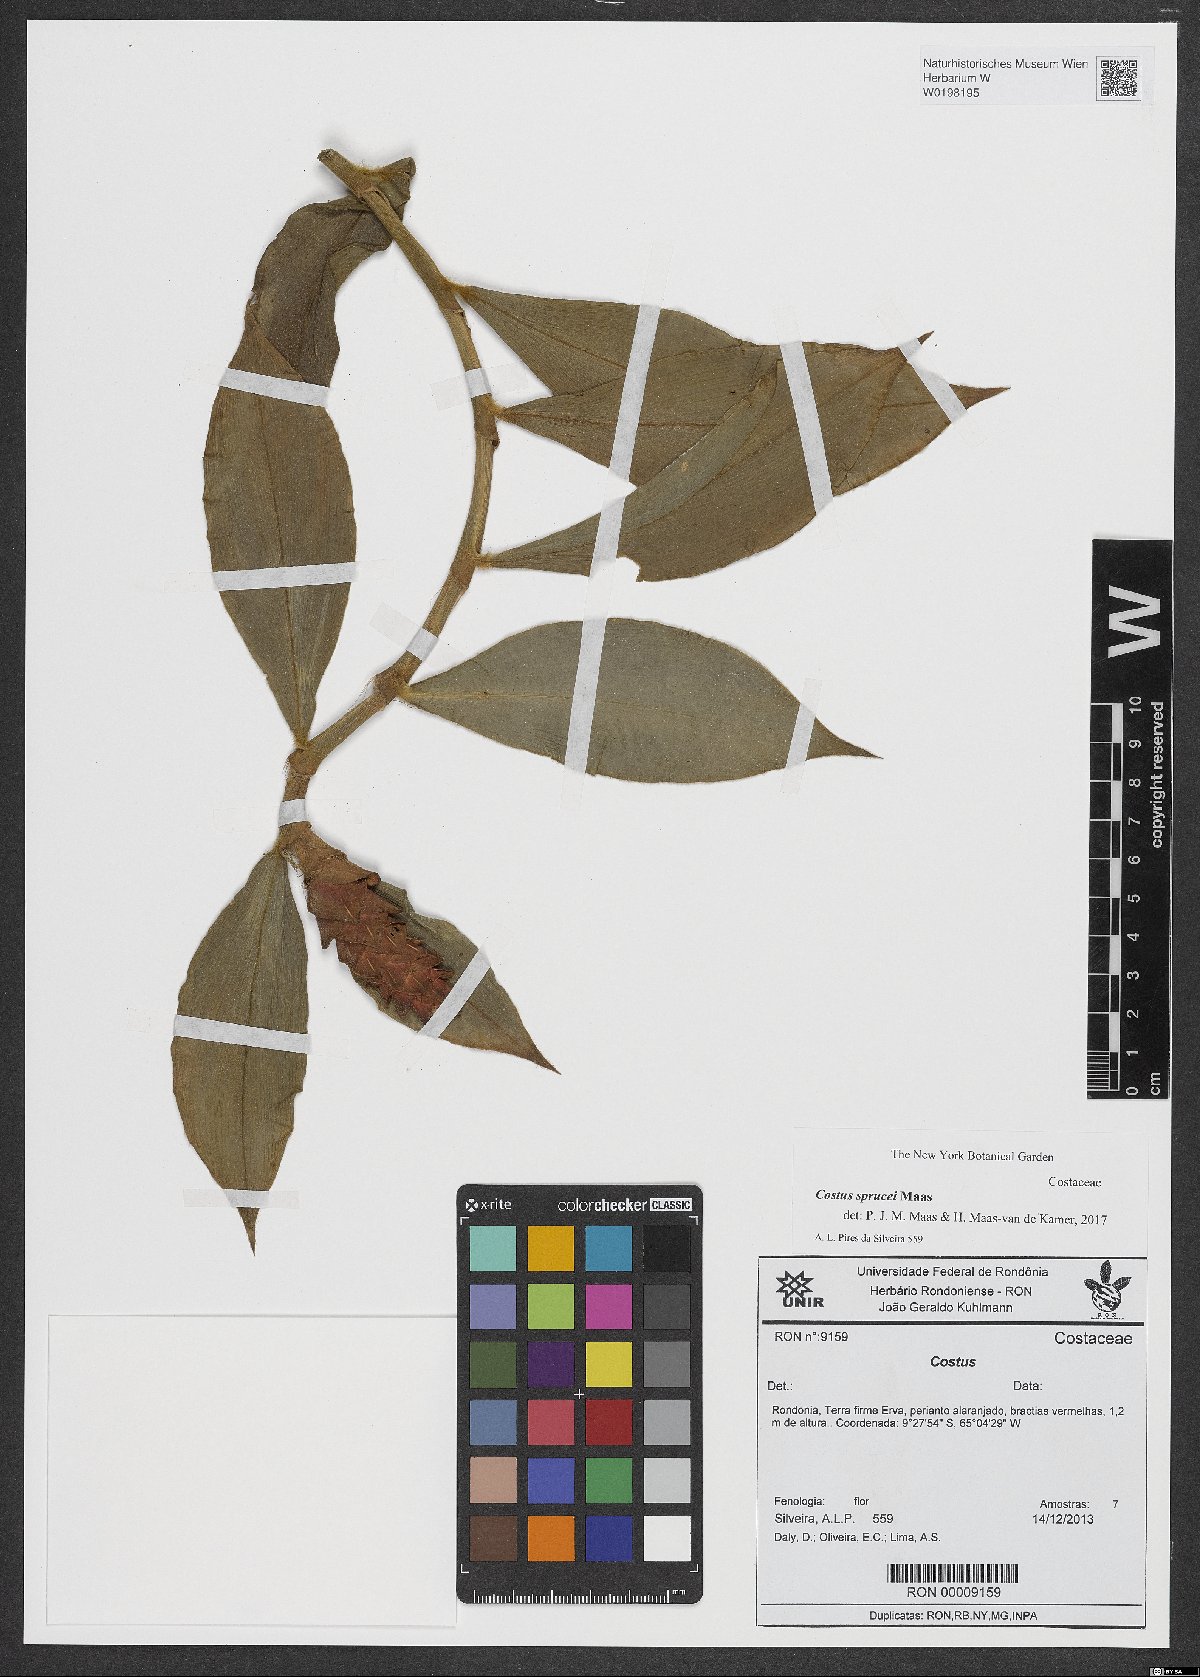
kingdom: Plantae
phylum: Tracheophyta
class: Liliopsida
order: Zingiberales
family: Costaceae
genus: Costus
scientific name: Costus sprucei
